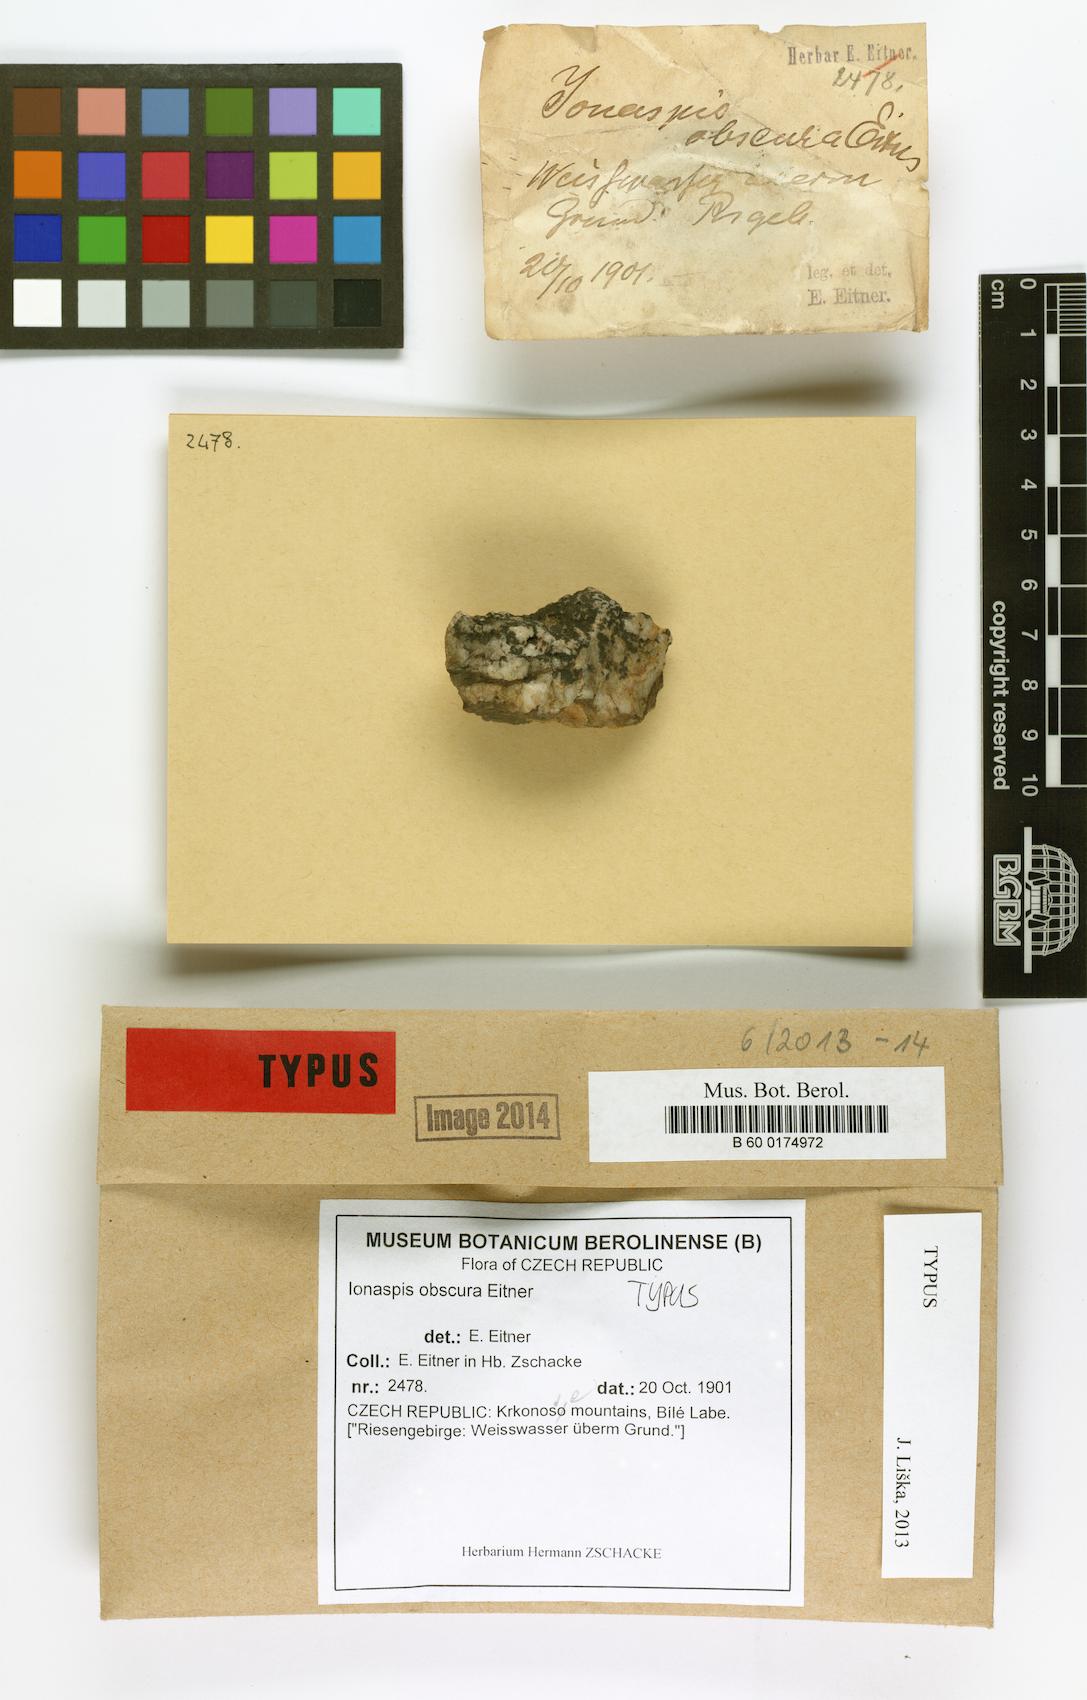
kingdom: Fungi
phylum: Ascomycota
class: Lecanoromycetes
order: Hymeneliales
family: Hymeneliaceae
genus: Ionaspis
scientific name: Ionaspis obscura
